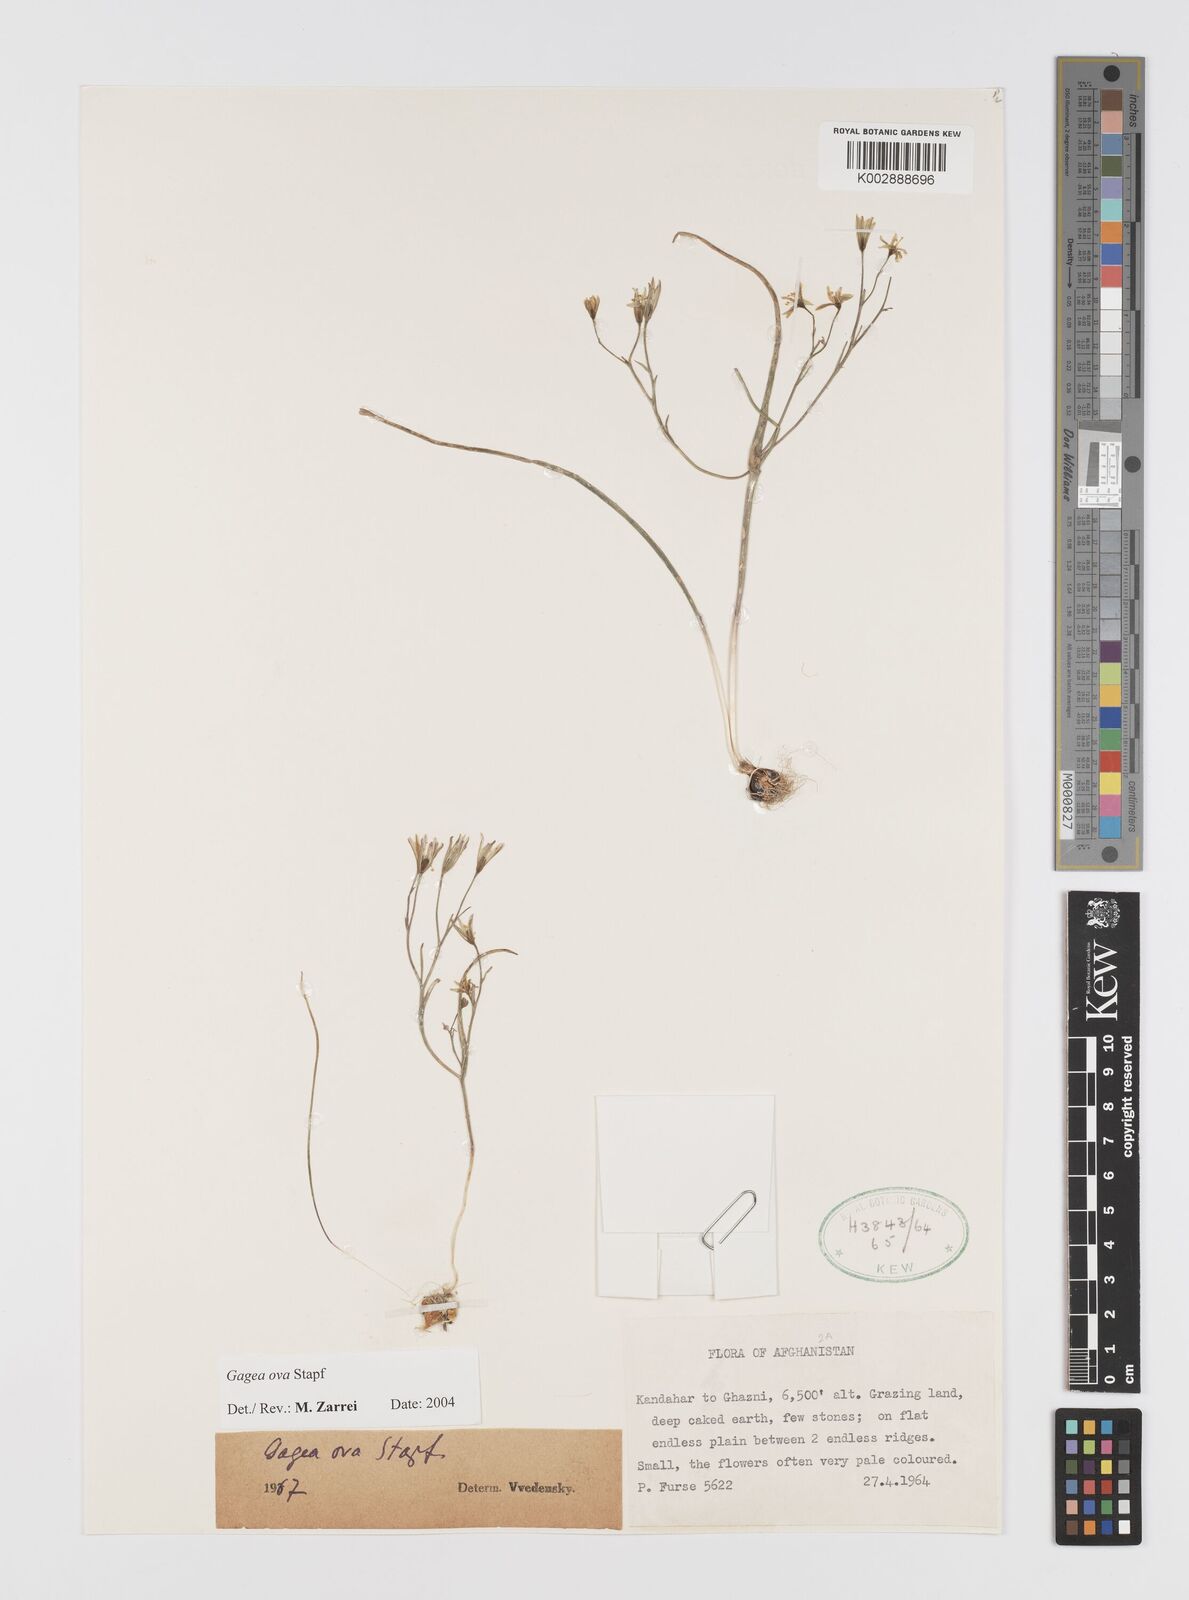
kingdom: Plantae
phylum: Tracheophyta
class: Liliopsida
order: Liliales
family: Liliaceae
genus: Gagea
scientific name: Gagea kunawurensis
